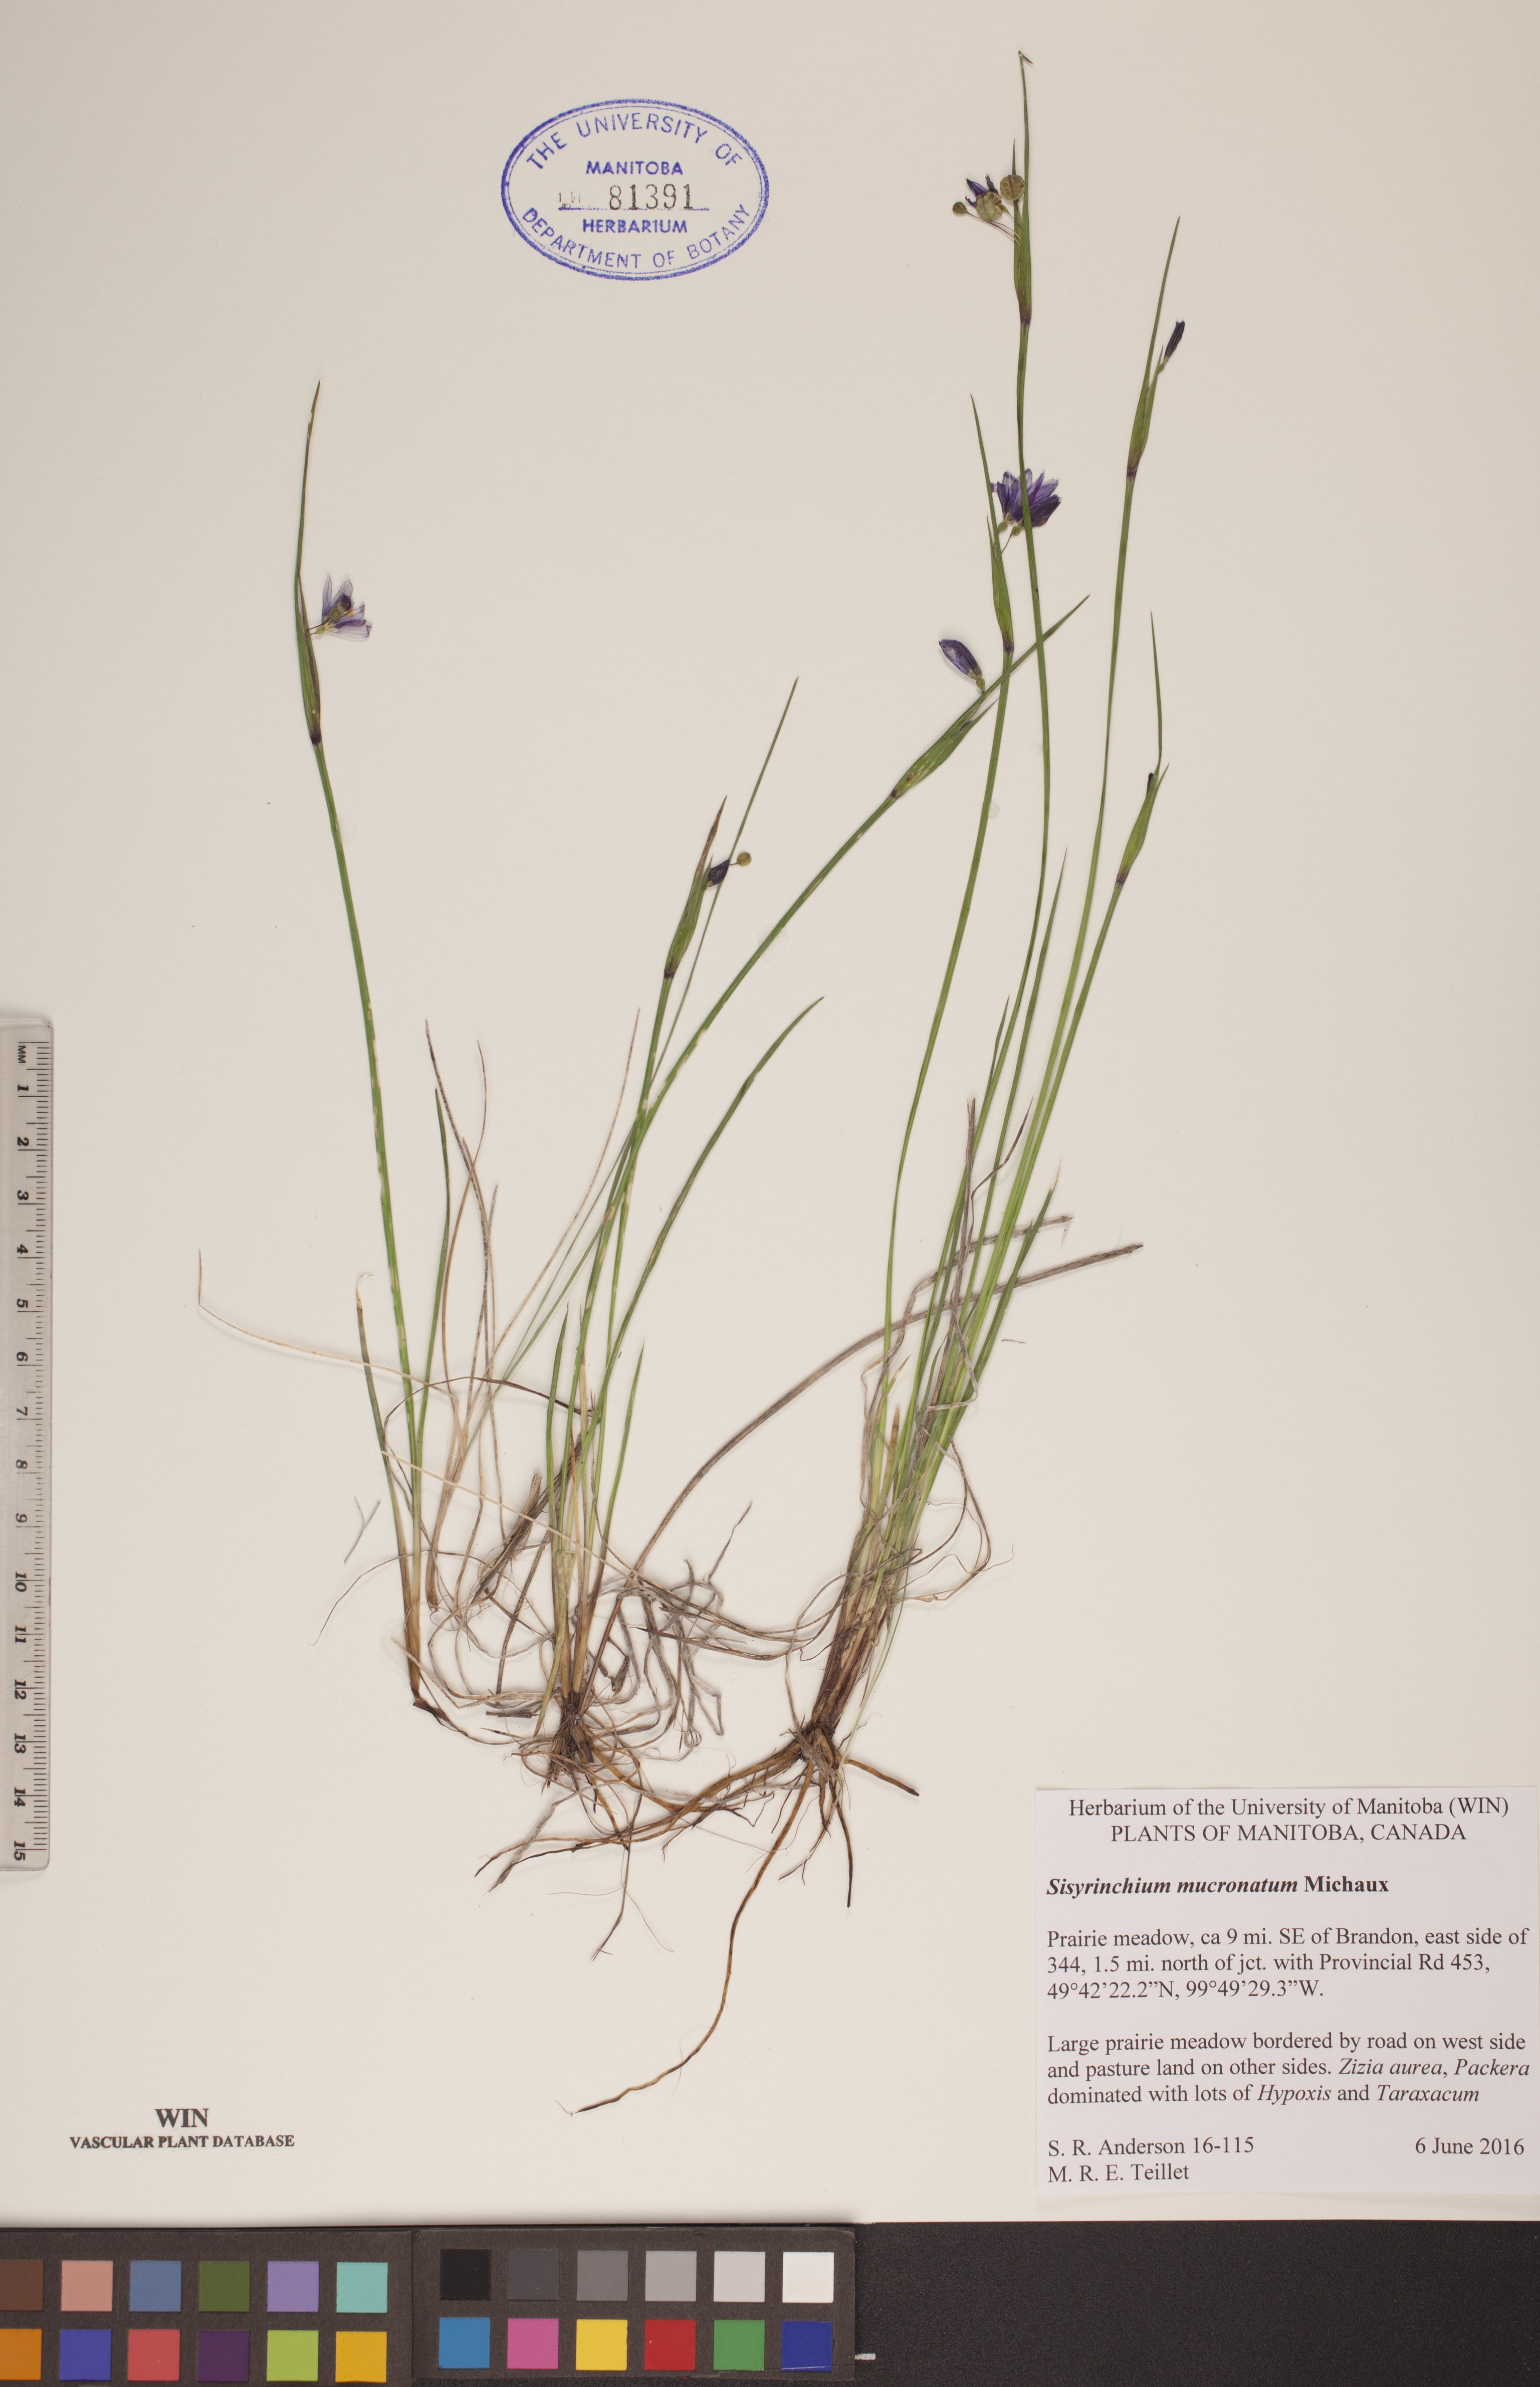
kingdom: Plantae
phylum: Tracheophyta
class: Liliopsida
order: Asparagales
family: Iridaceae
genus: Sisyrinchium
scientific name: Sisyrinchium mucronatum
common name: Eastern blue-eyed-grass
